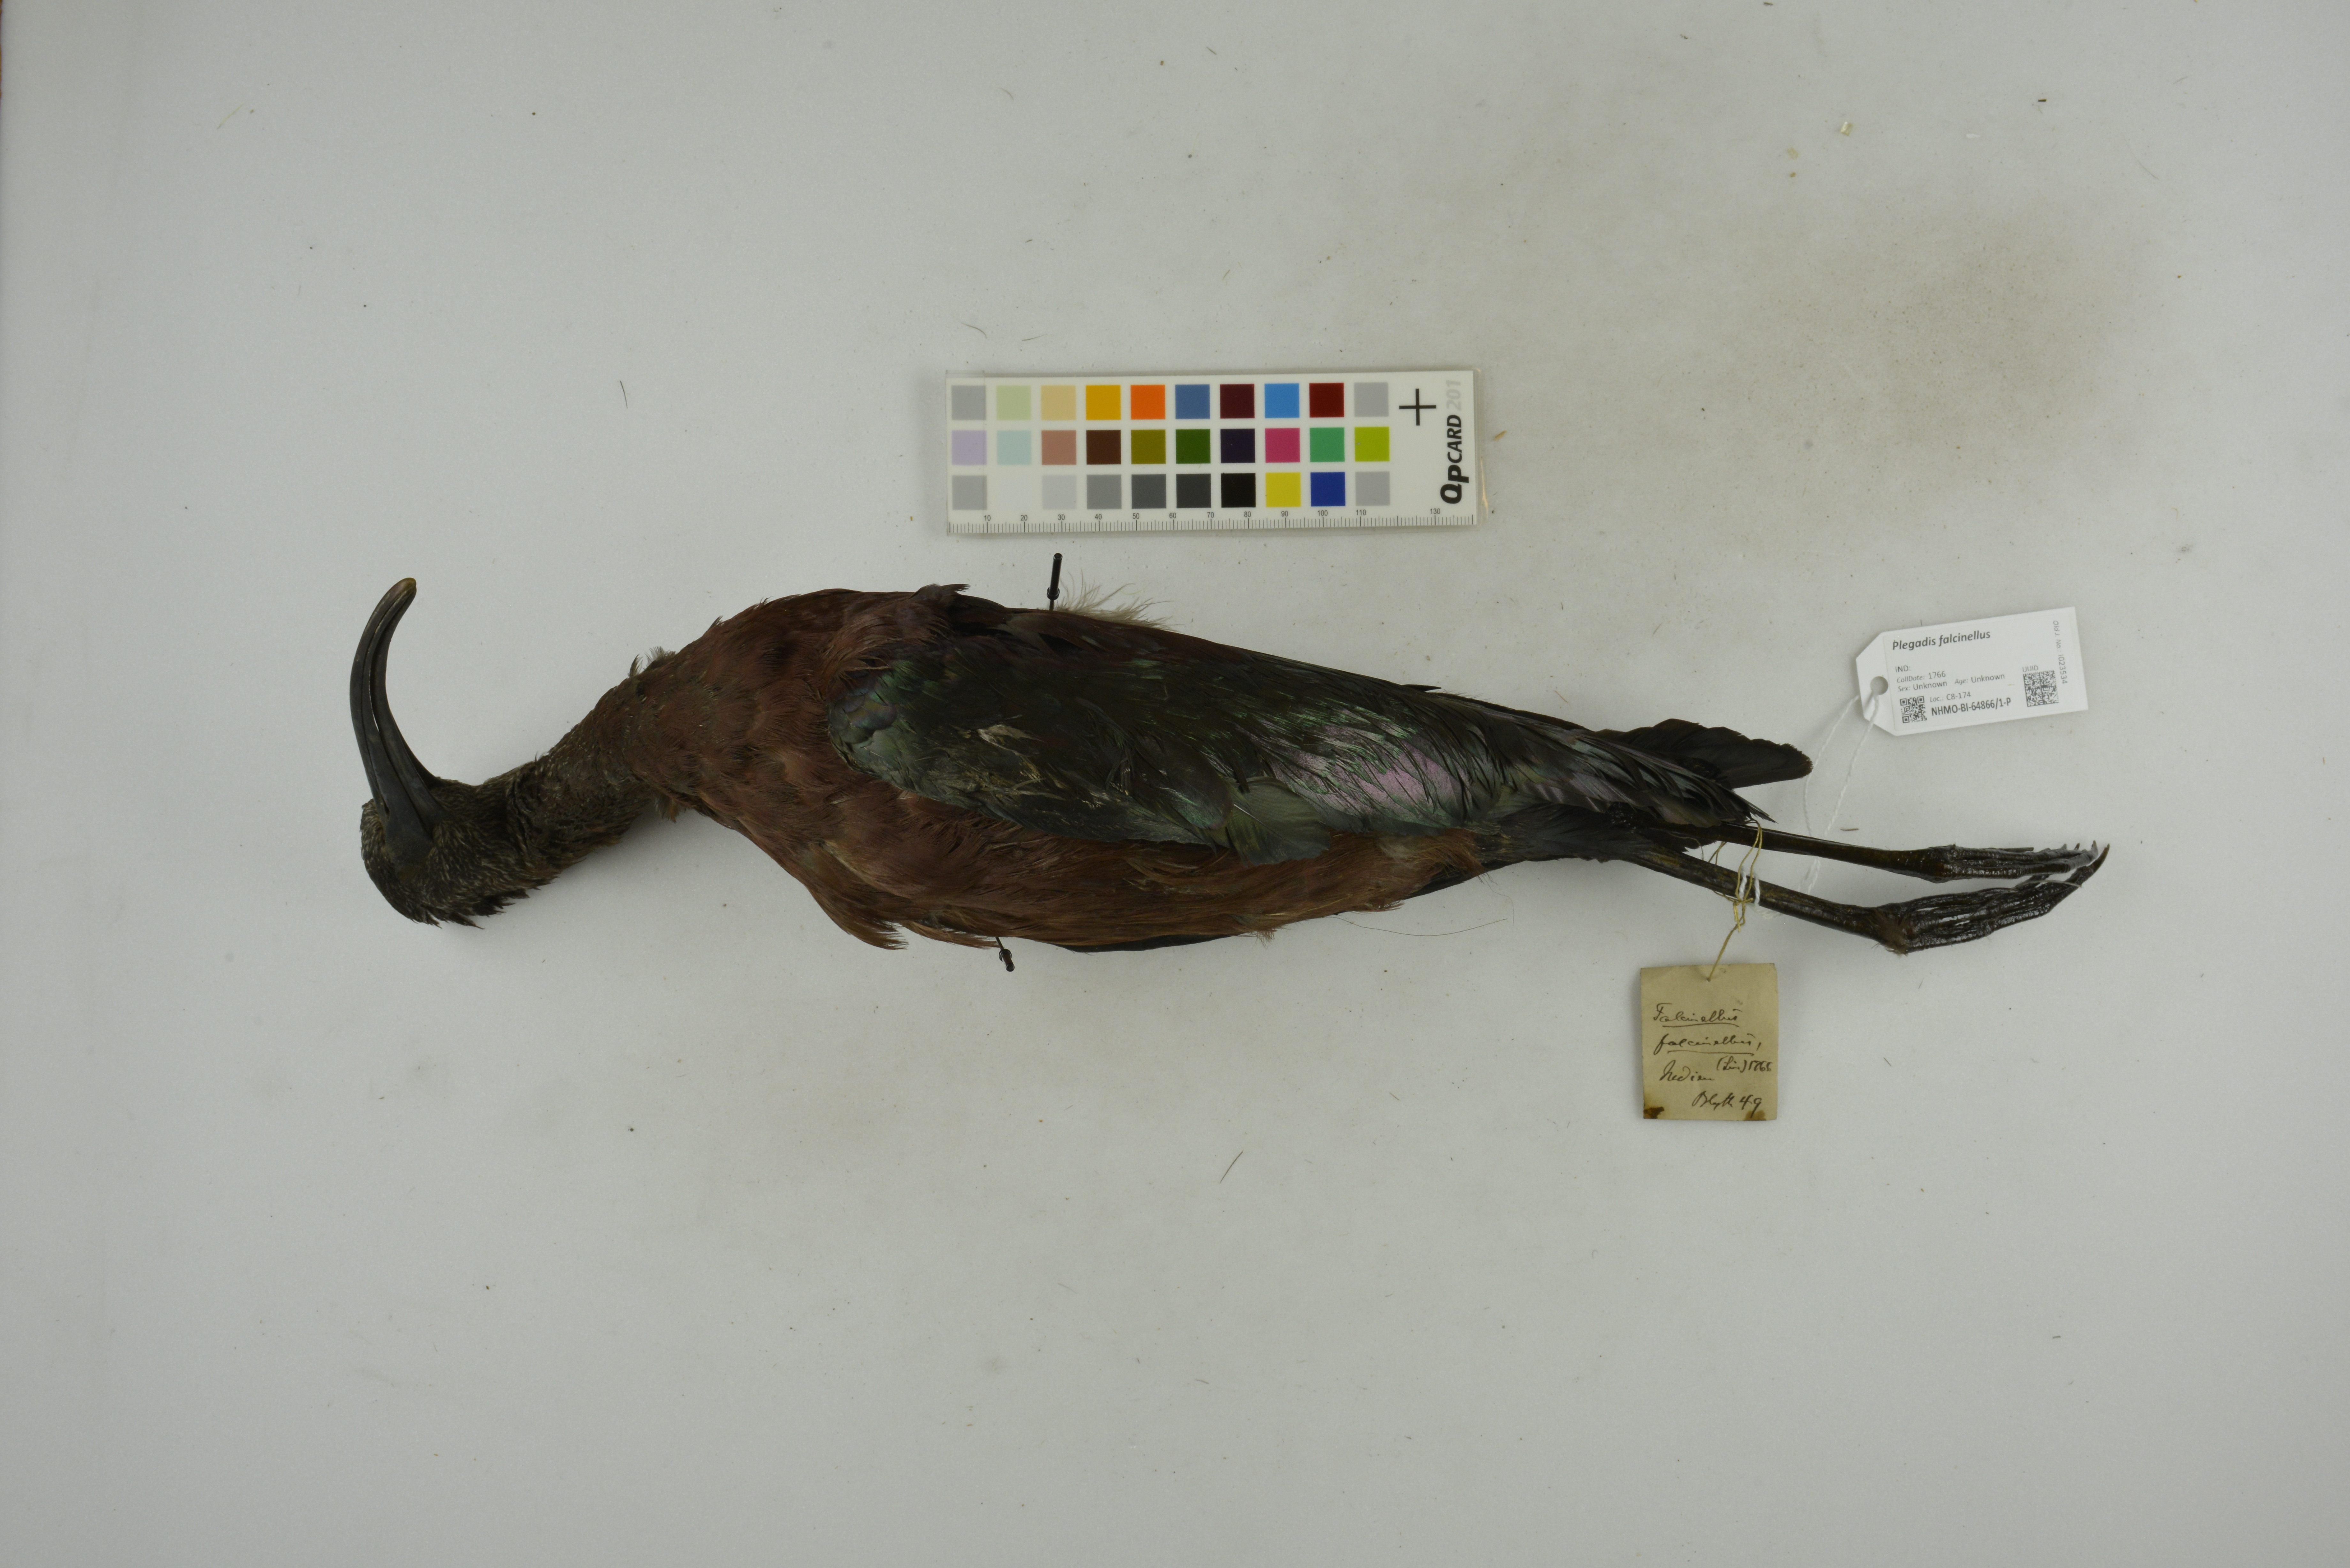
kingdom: Animalia
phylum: Chordata
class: Aves
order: Pelecaniformes
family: Threskiornithidae
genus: Plegadis
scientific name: Plegadis falcinellus
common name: Glossy ibis
